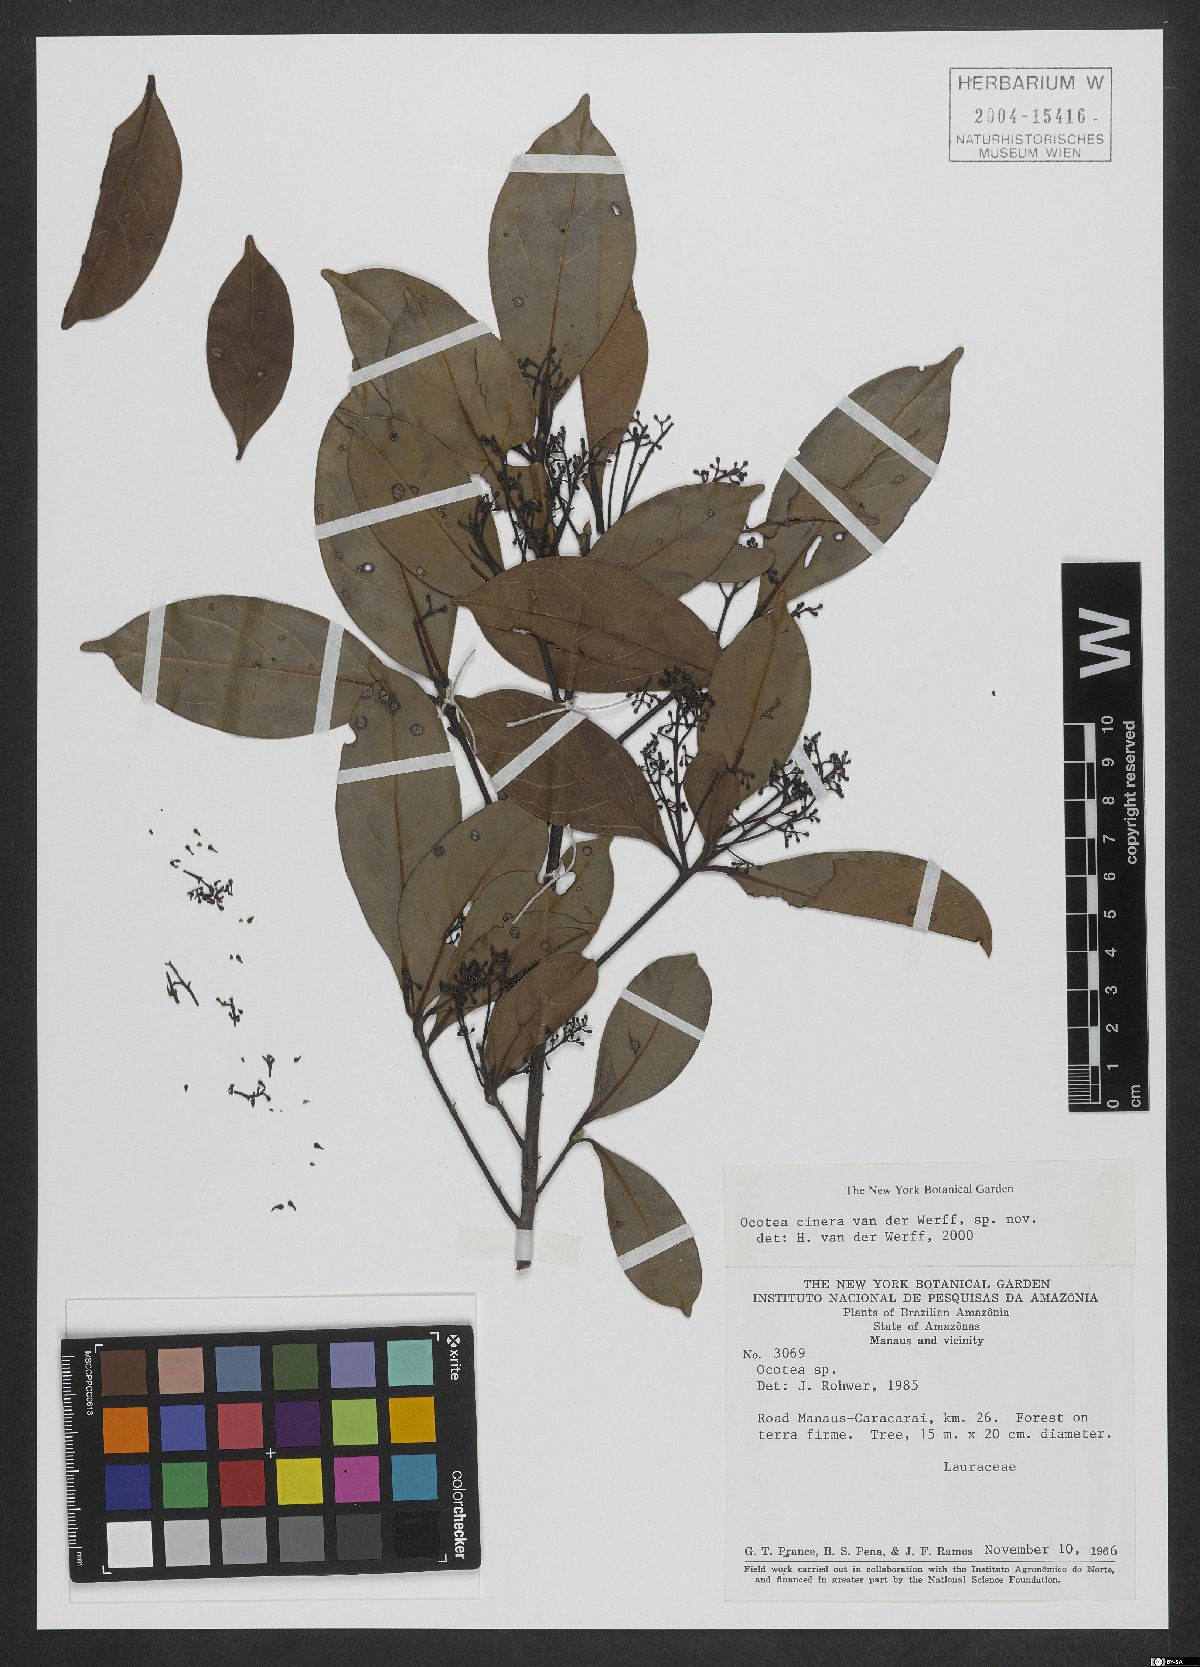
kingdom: Plantae
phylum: Tracheophyta
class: Magnoliopsida
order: Laurales
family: Lauraceae
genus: Ocotea
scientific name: Ocotea cinerea
